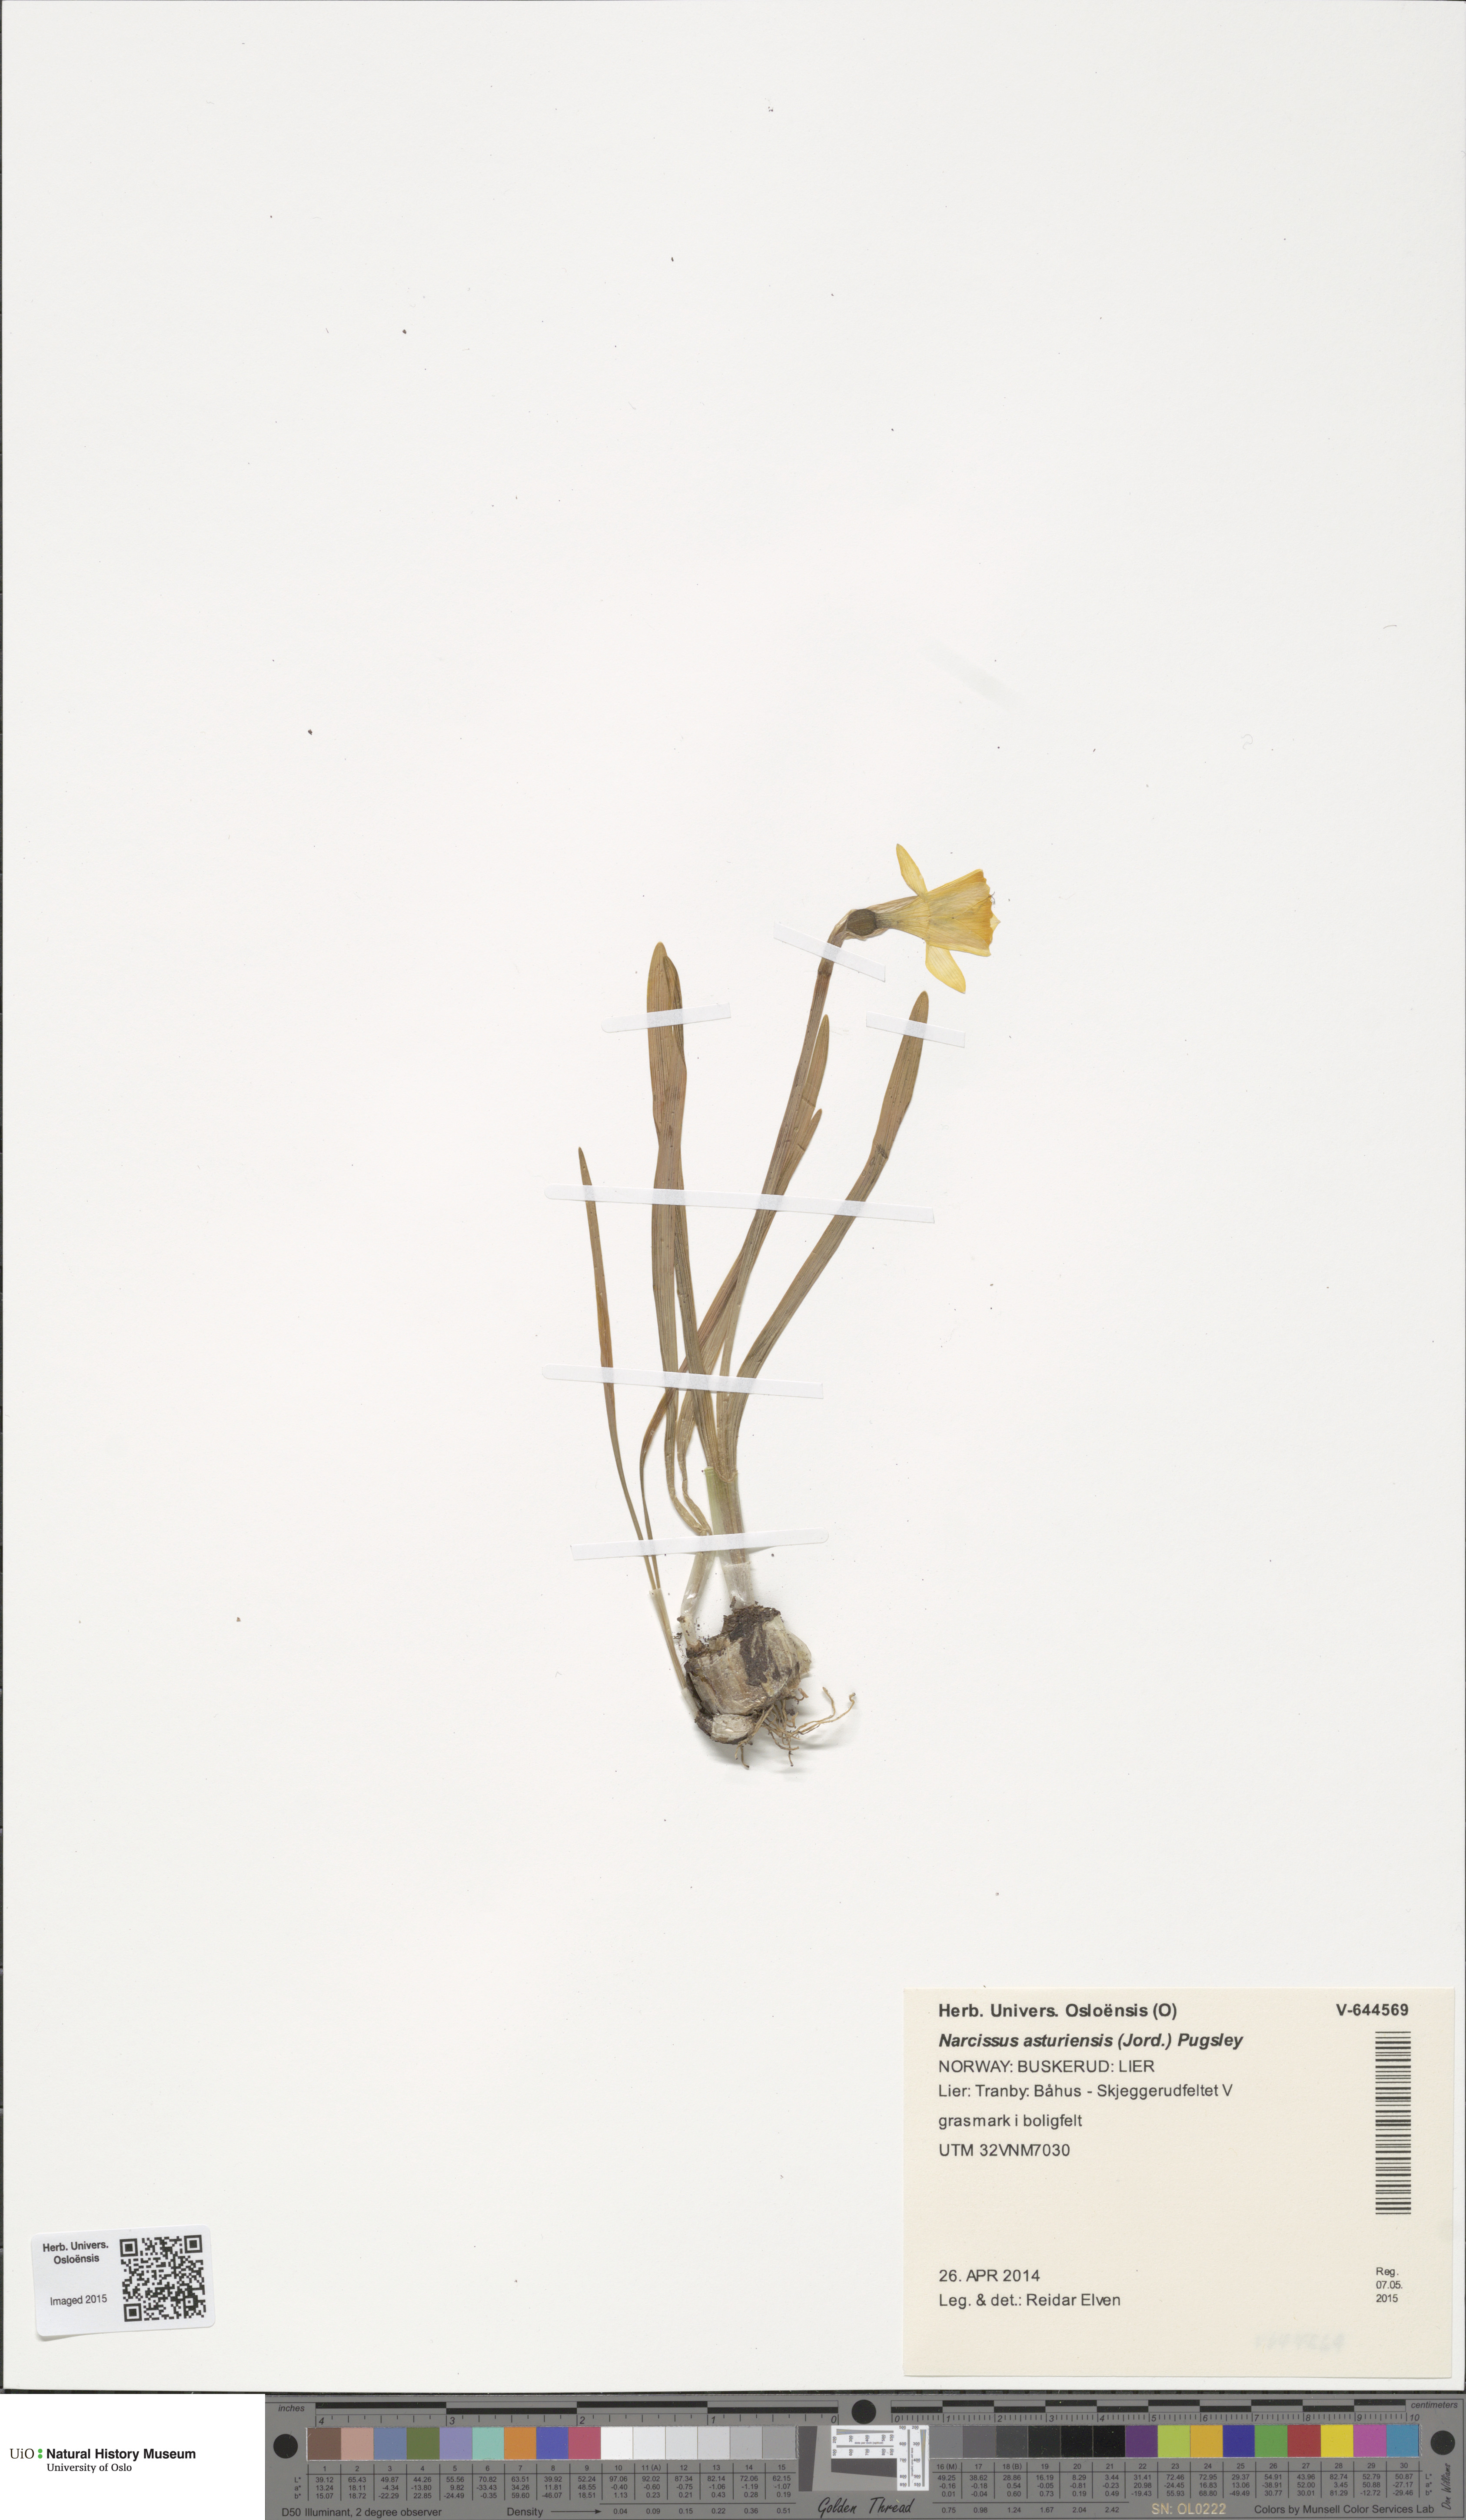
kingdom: Plantae
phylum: Tracheophyta
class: Liliopsida
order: Asparagales
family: Amaryllidaceae
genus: Narcissus
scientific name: Narcissus cyclazetta
